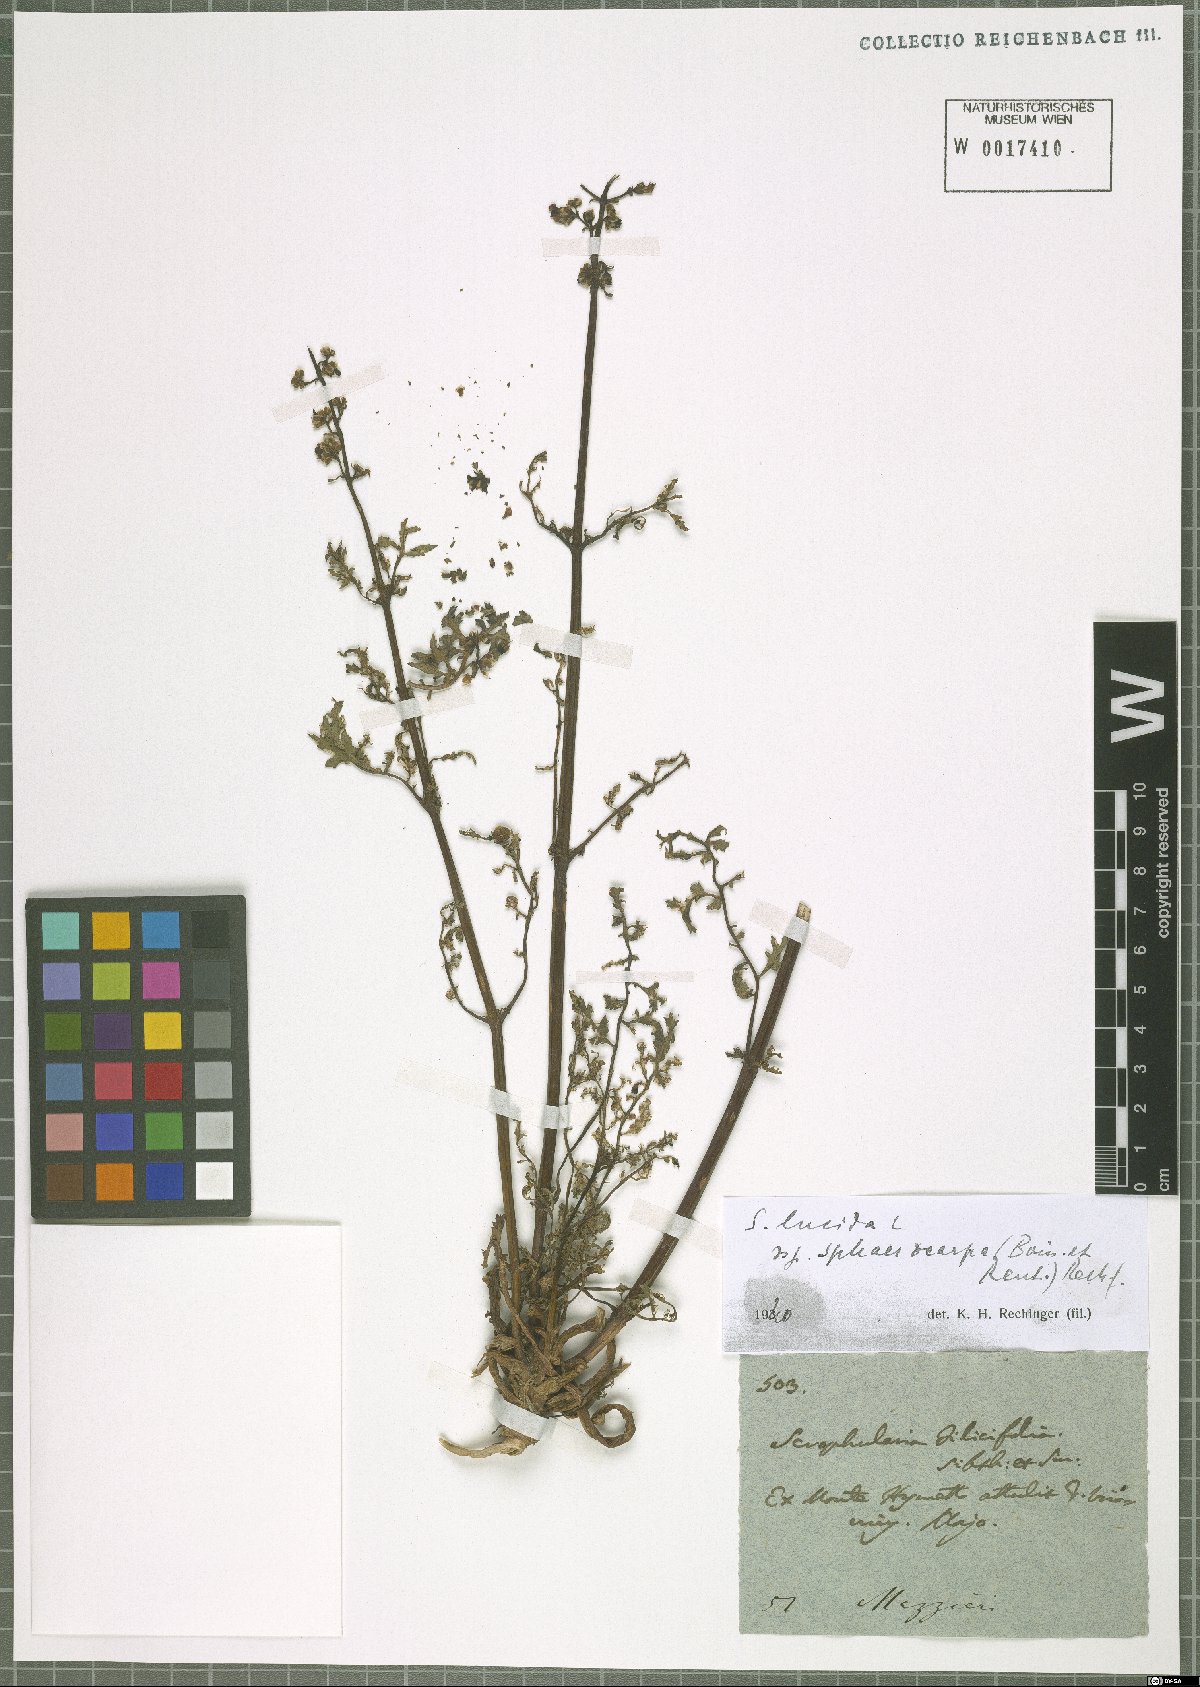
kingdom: Plantae
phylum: Tracheophyta
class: Magnoliopsida
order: Lamiales
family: Scrophulariaceae
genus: Scrophularia
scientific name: Scrophularia lucida
